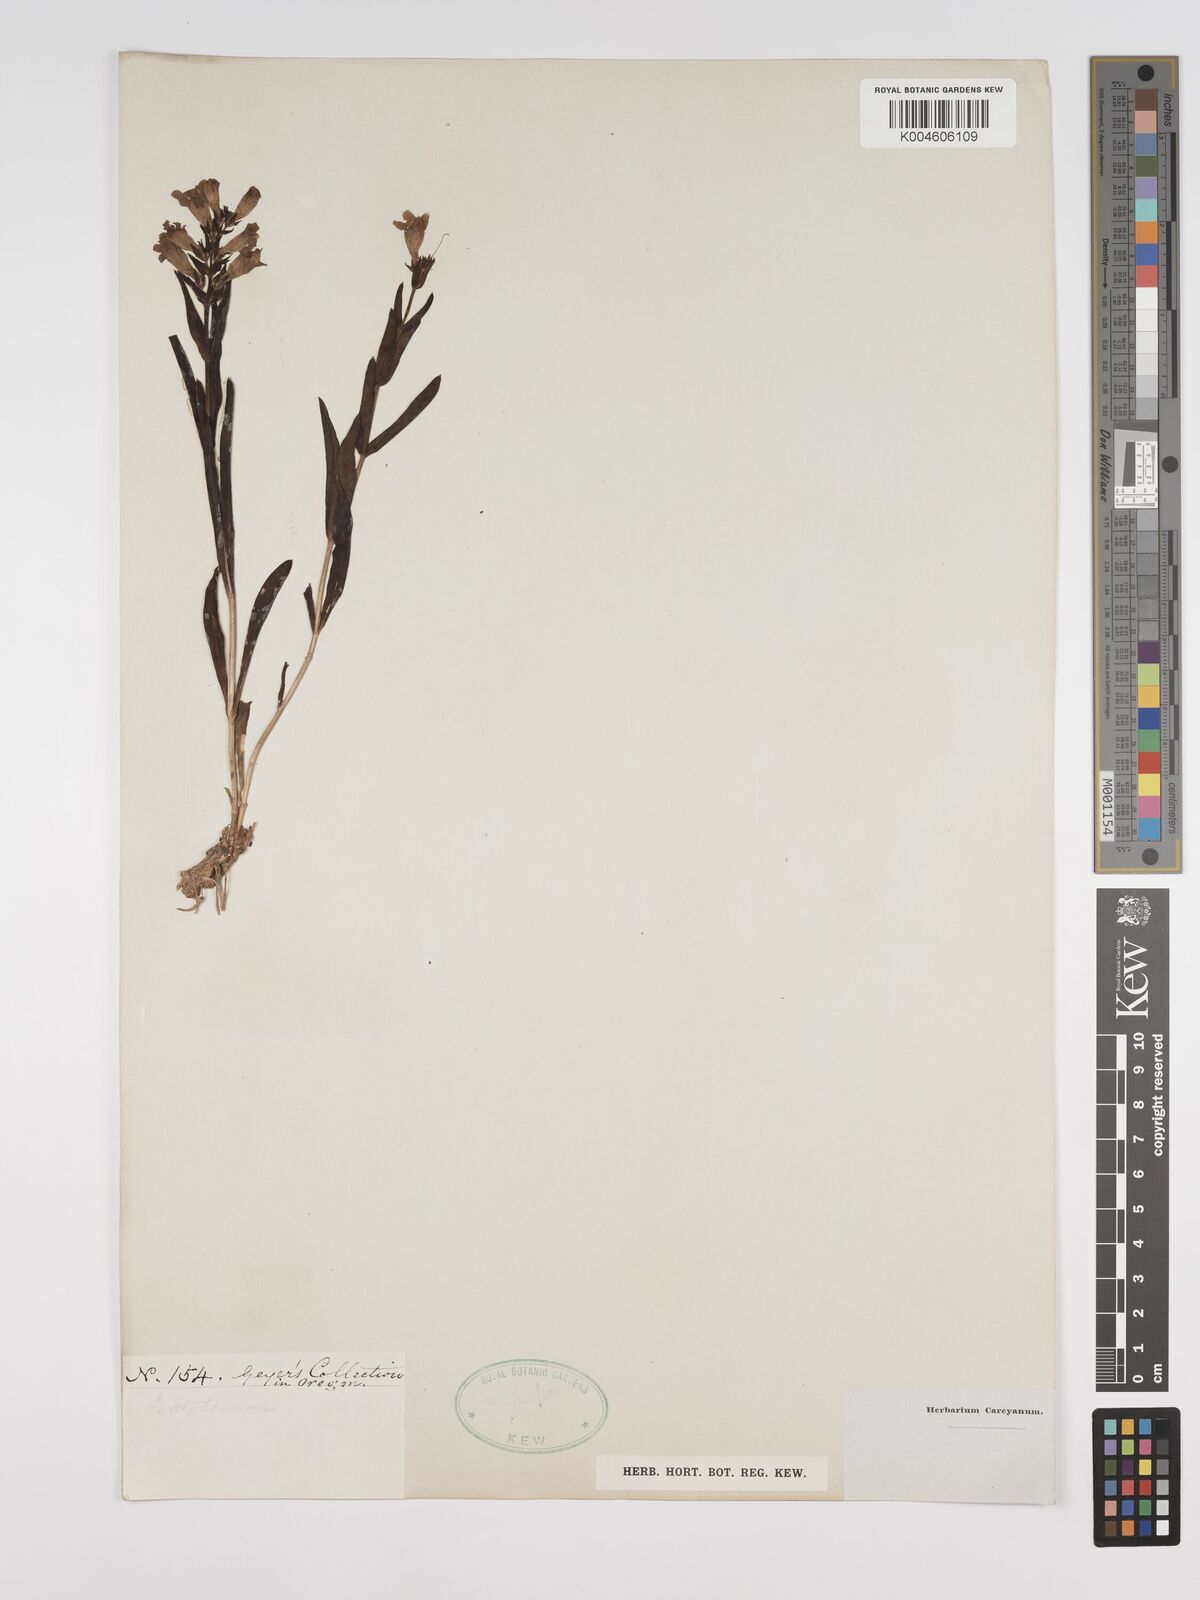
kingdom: Plantae
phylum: Tracheophyta
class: Magnoliopsida
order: Lamiales
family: Plantaginaceae
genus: Penstemon
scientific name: Penstemon
